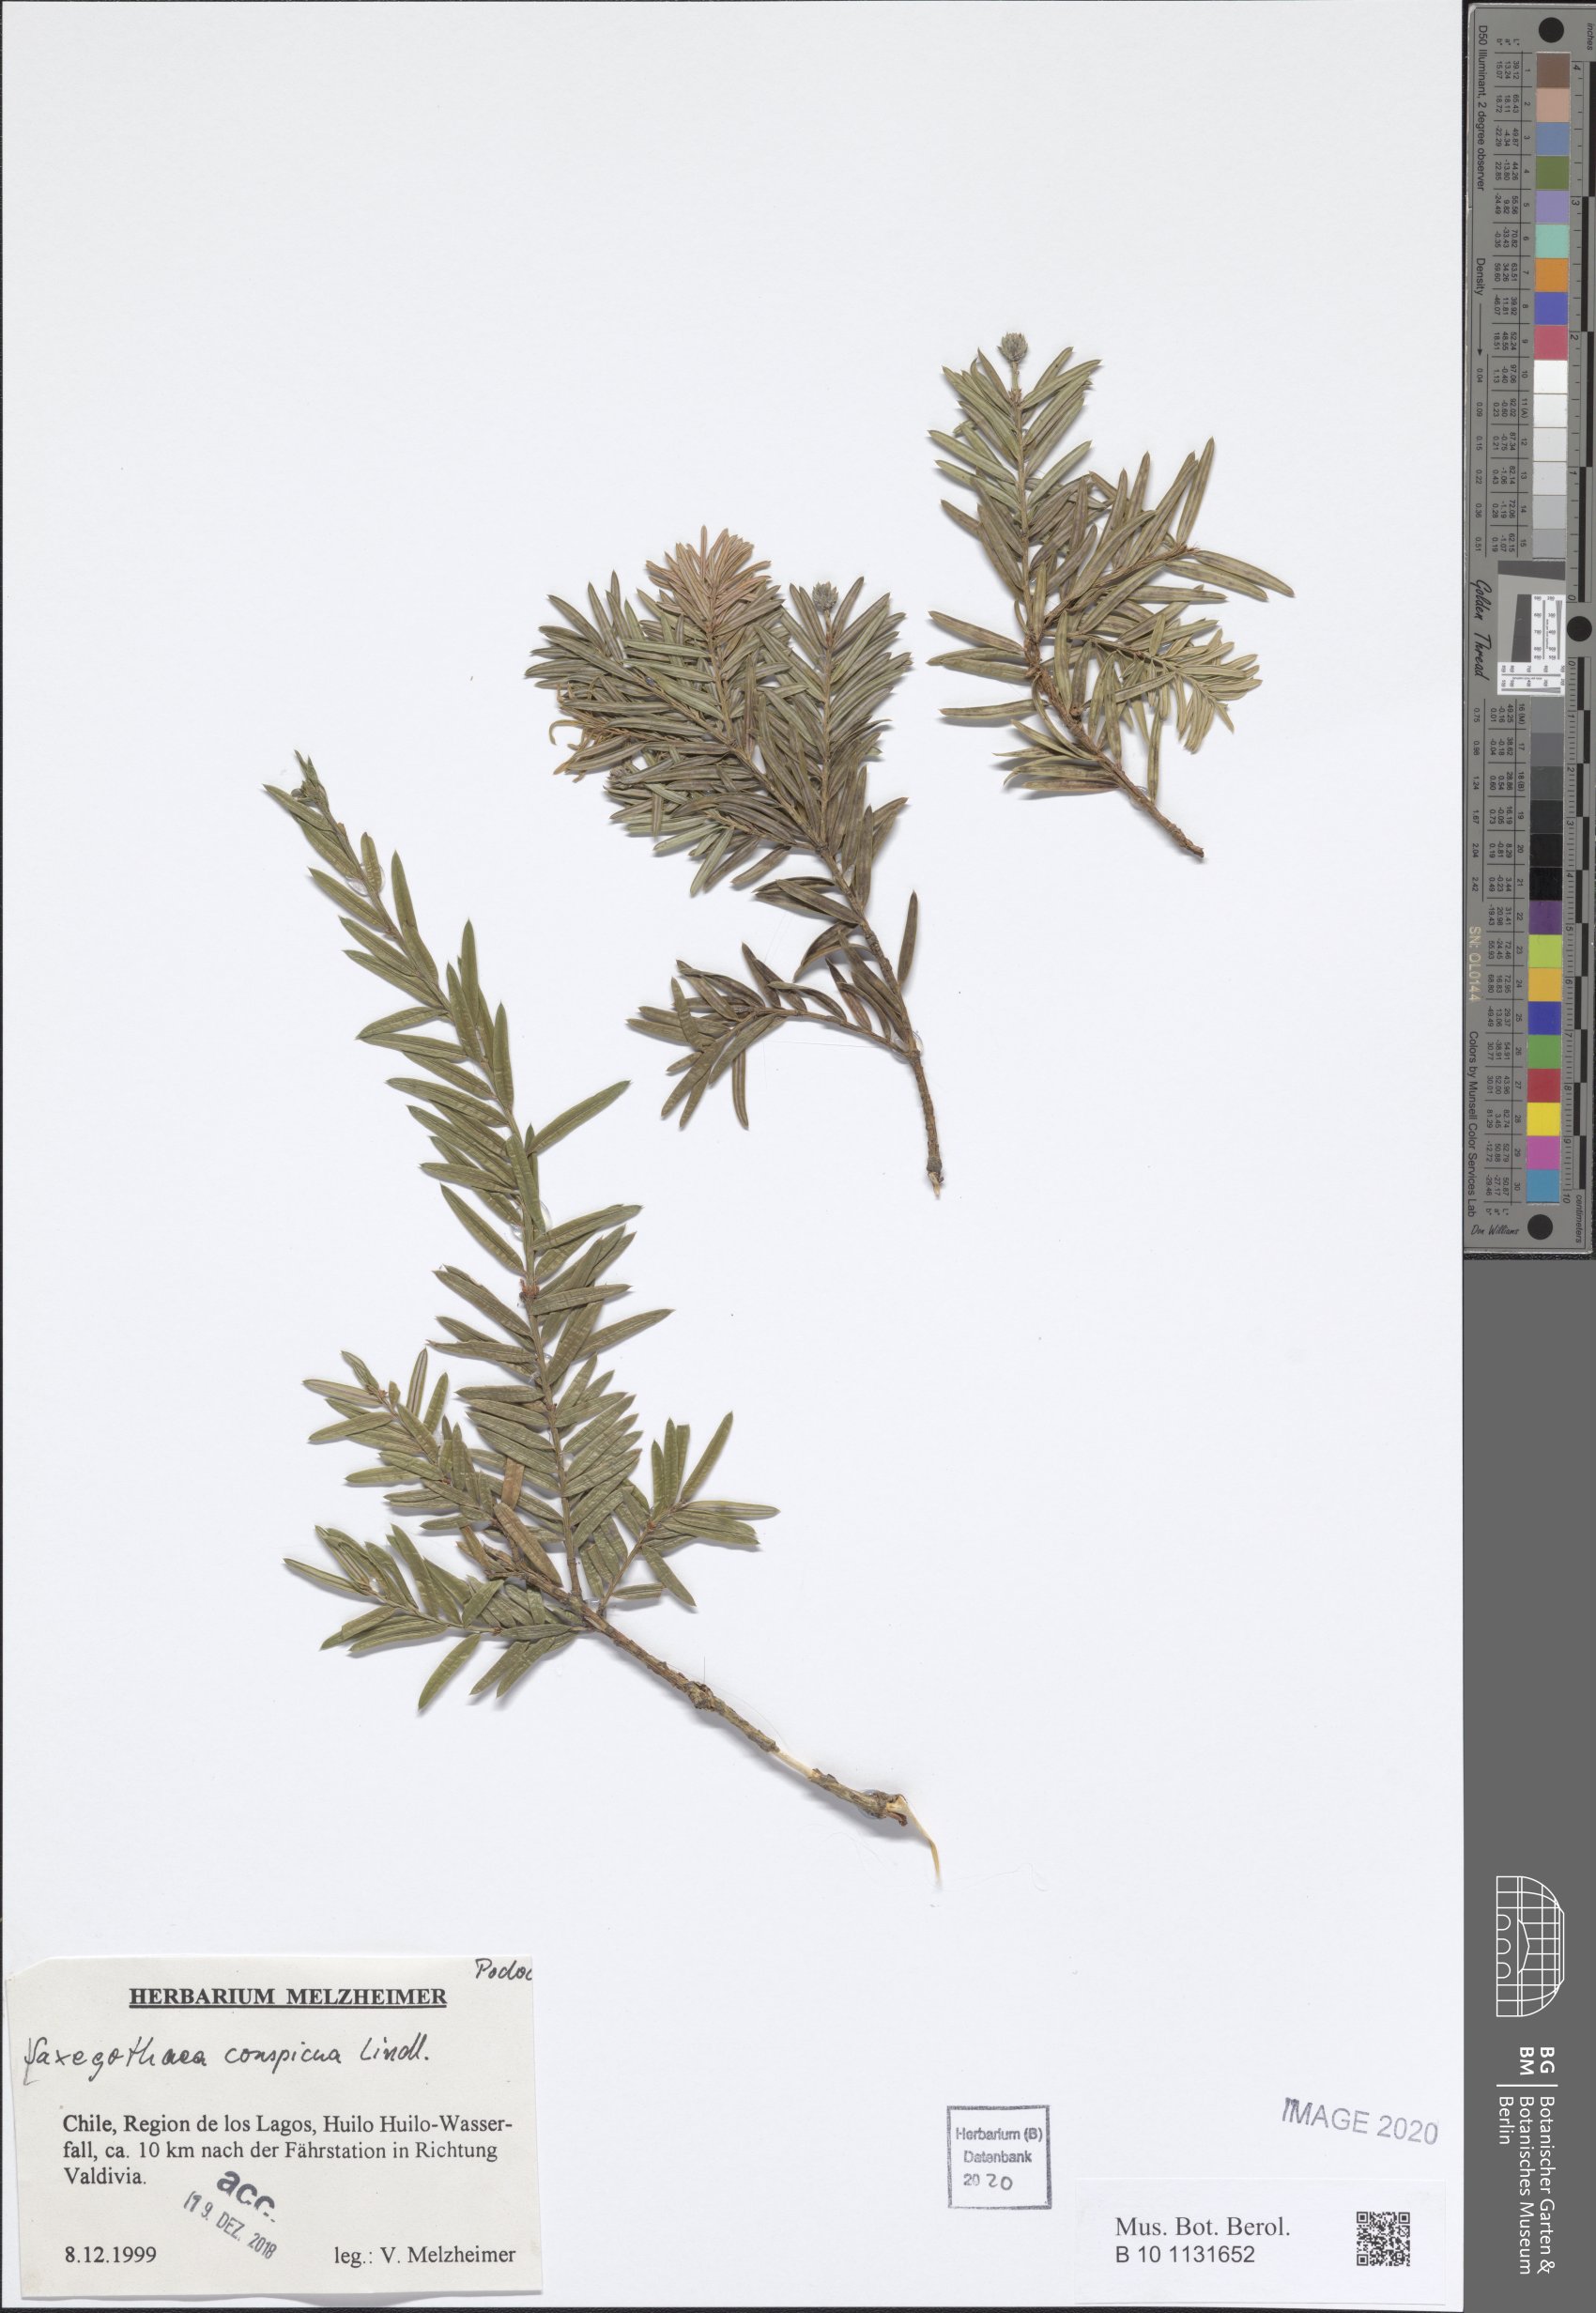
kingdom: Plantae
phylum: Tracheophyta
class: Pinopsida
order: Pinales
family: Podocarpaceae
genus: Saxegothaea
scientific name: Saxegothaea conspicua
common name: Prince albert's yew
